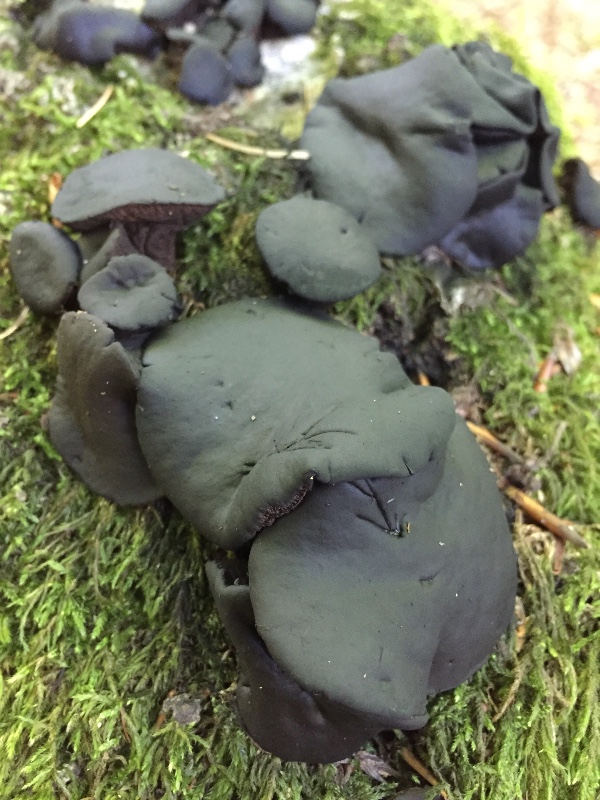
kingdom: Fungi
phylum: Ascomycota
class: Leotiomycetes
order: Phacidiales
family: Phacidiaceae
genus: Bulgaria
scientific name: Bulgaria inquinans
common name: afsmittende topsvamp
